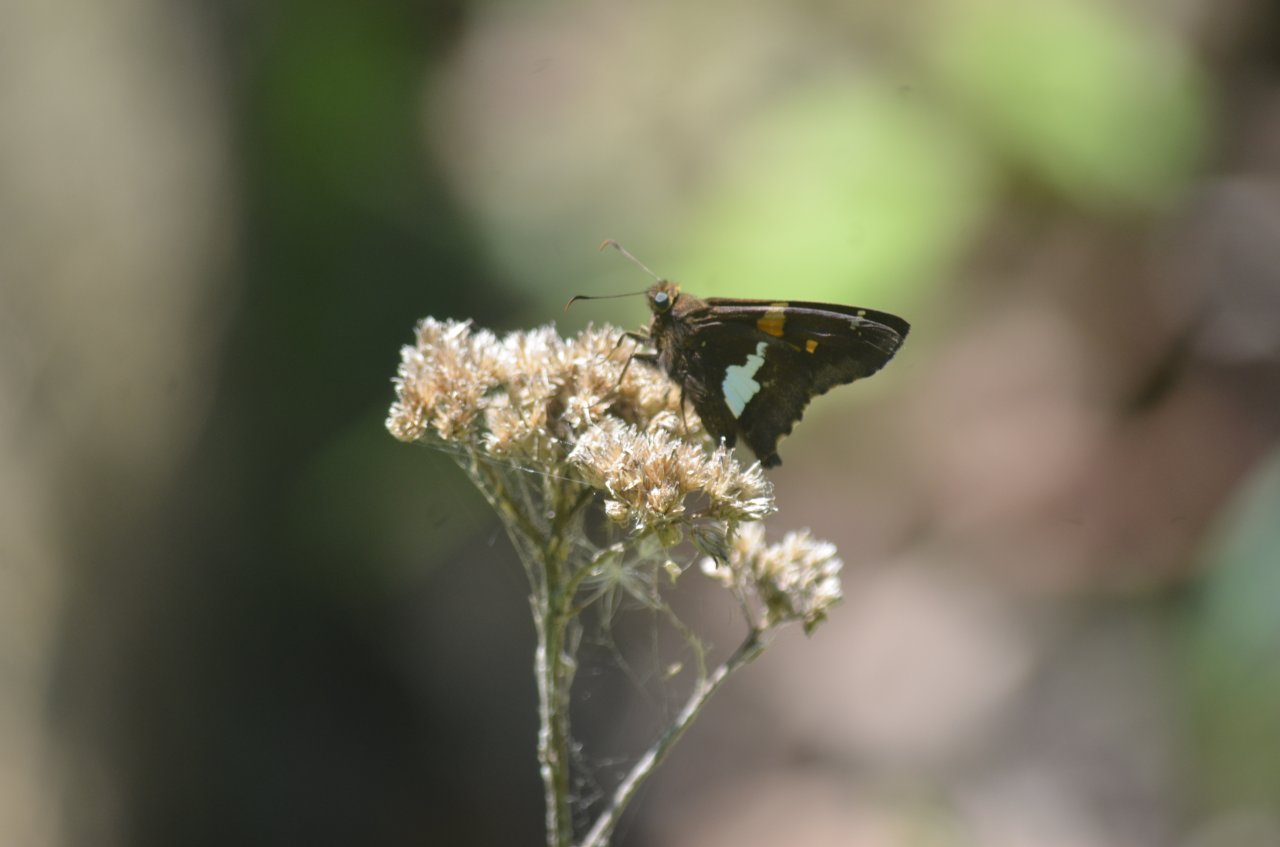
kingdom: Animalia
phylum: Arthropoda
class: Insecta
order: Lepidoptera
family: Hesperiidae
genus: Epargyreus
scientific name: Epargyreus clarus
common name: Silver-spotted Skipper
